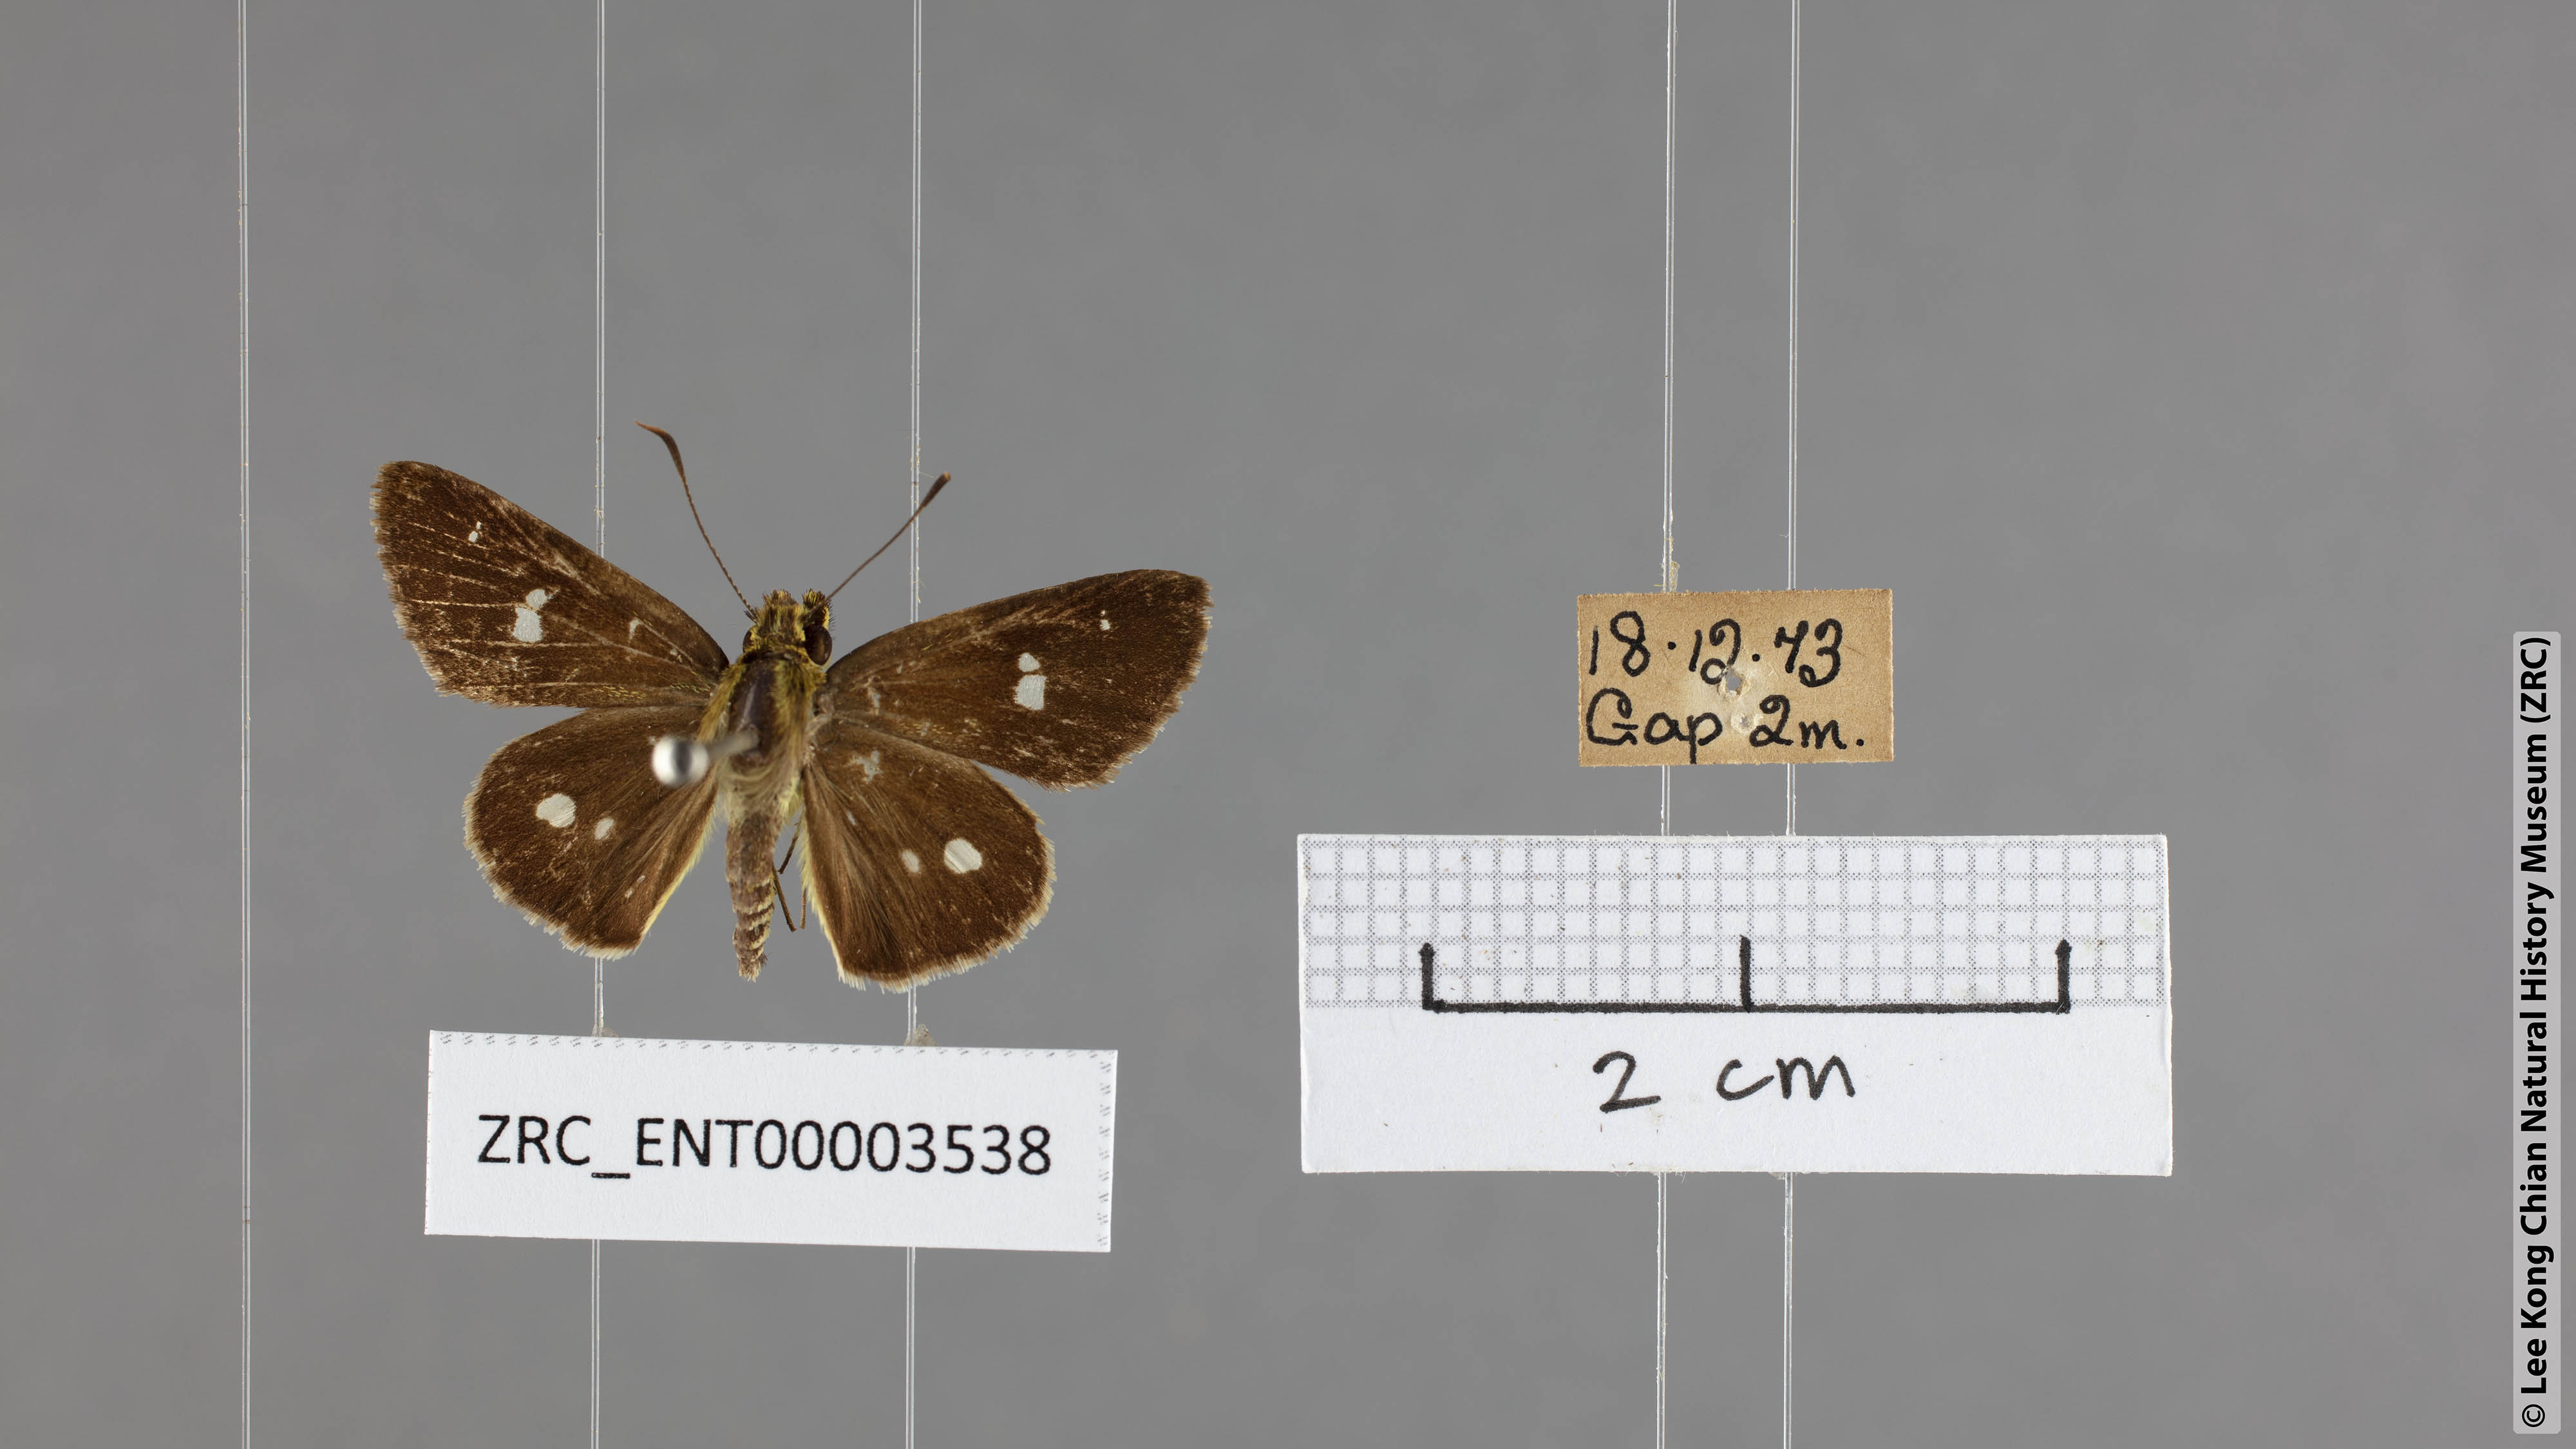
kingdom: Animalia
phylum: Arthropoda
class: Insecta
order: Lepidoptera
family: Hesperiidae
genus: Scobura
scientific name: Scobura isota
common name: Swinhoe's forest bob
